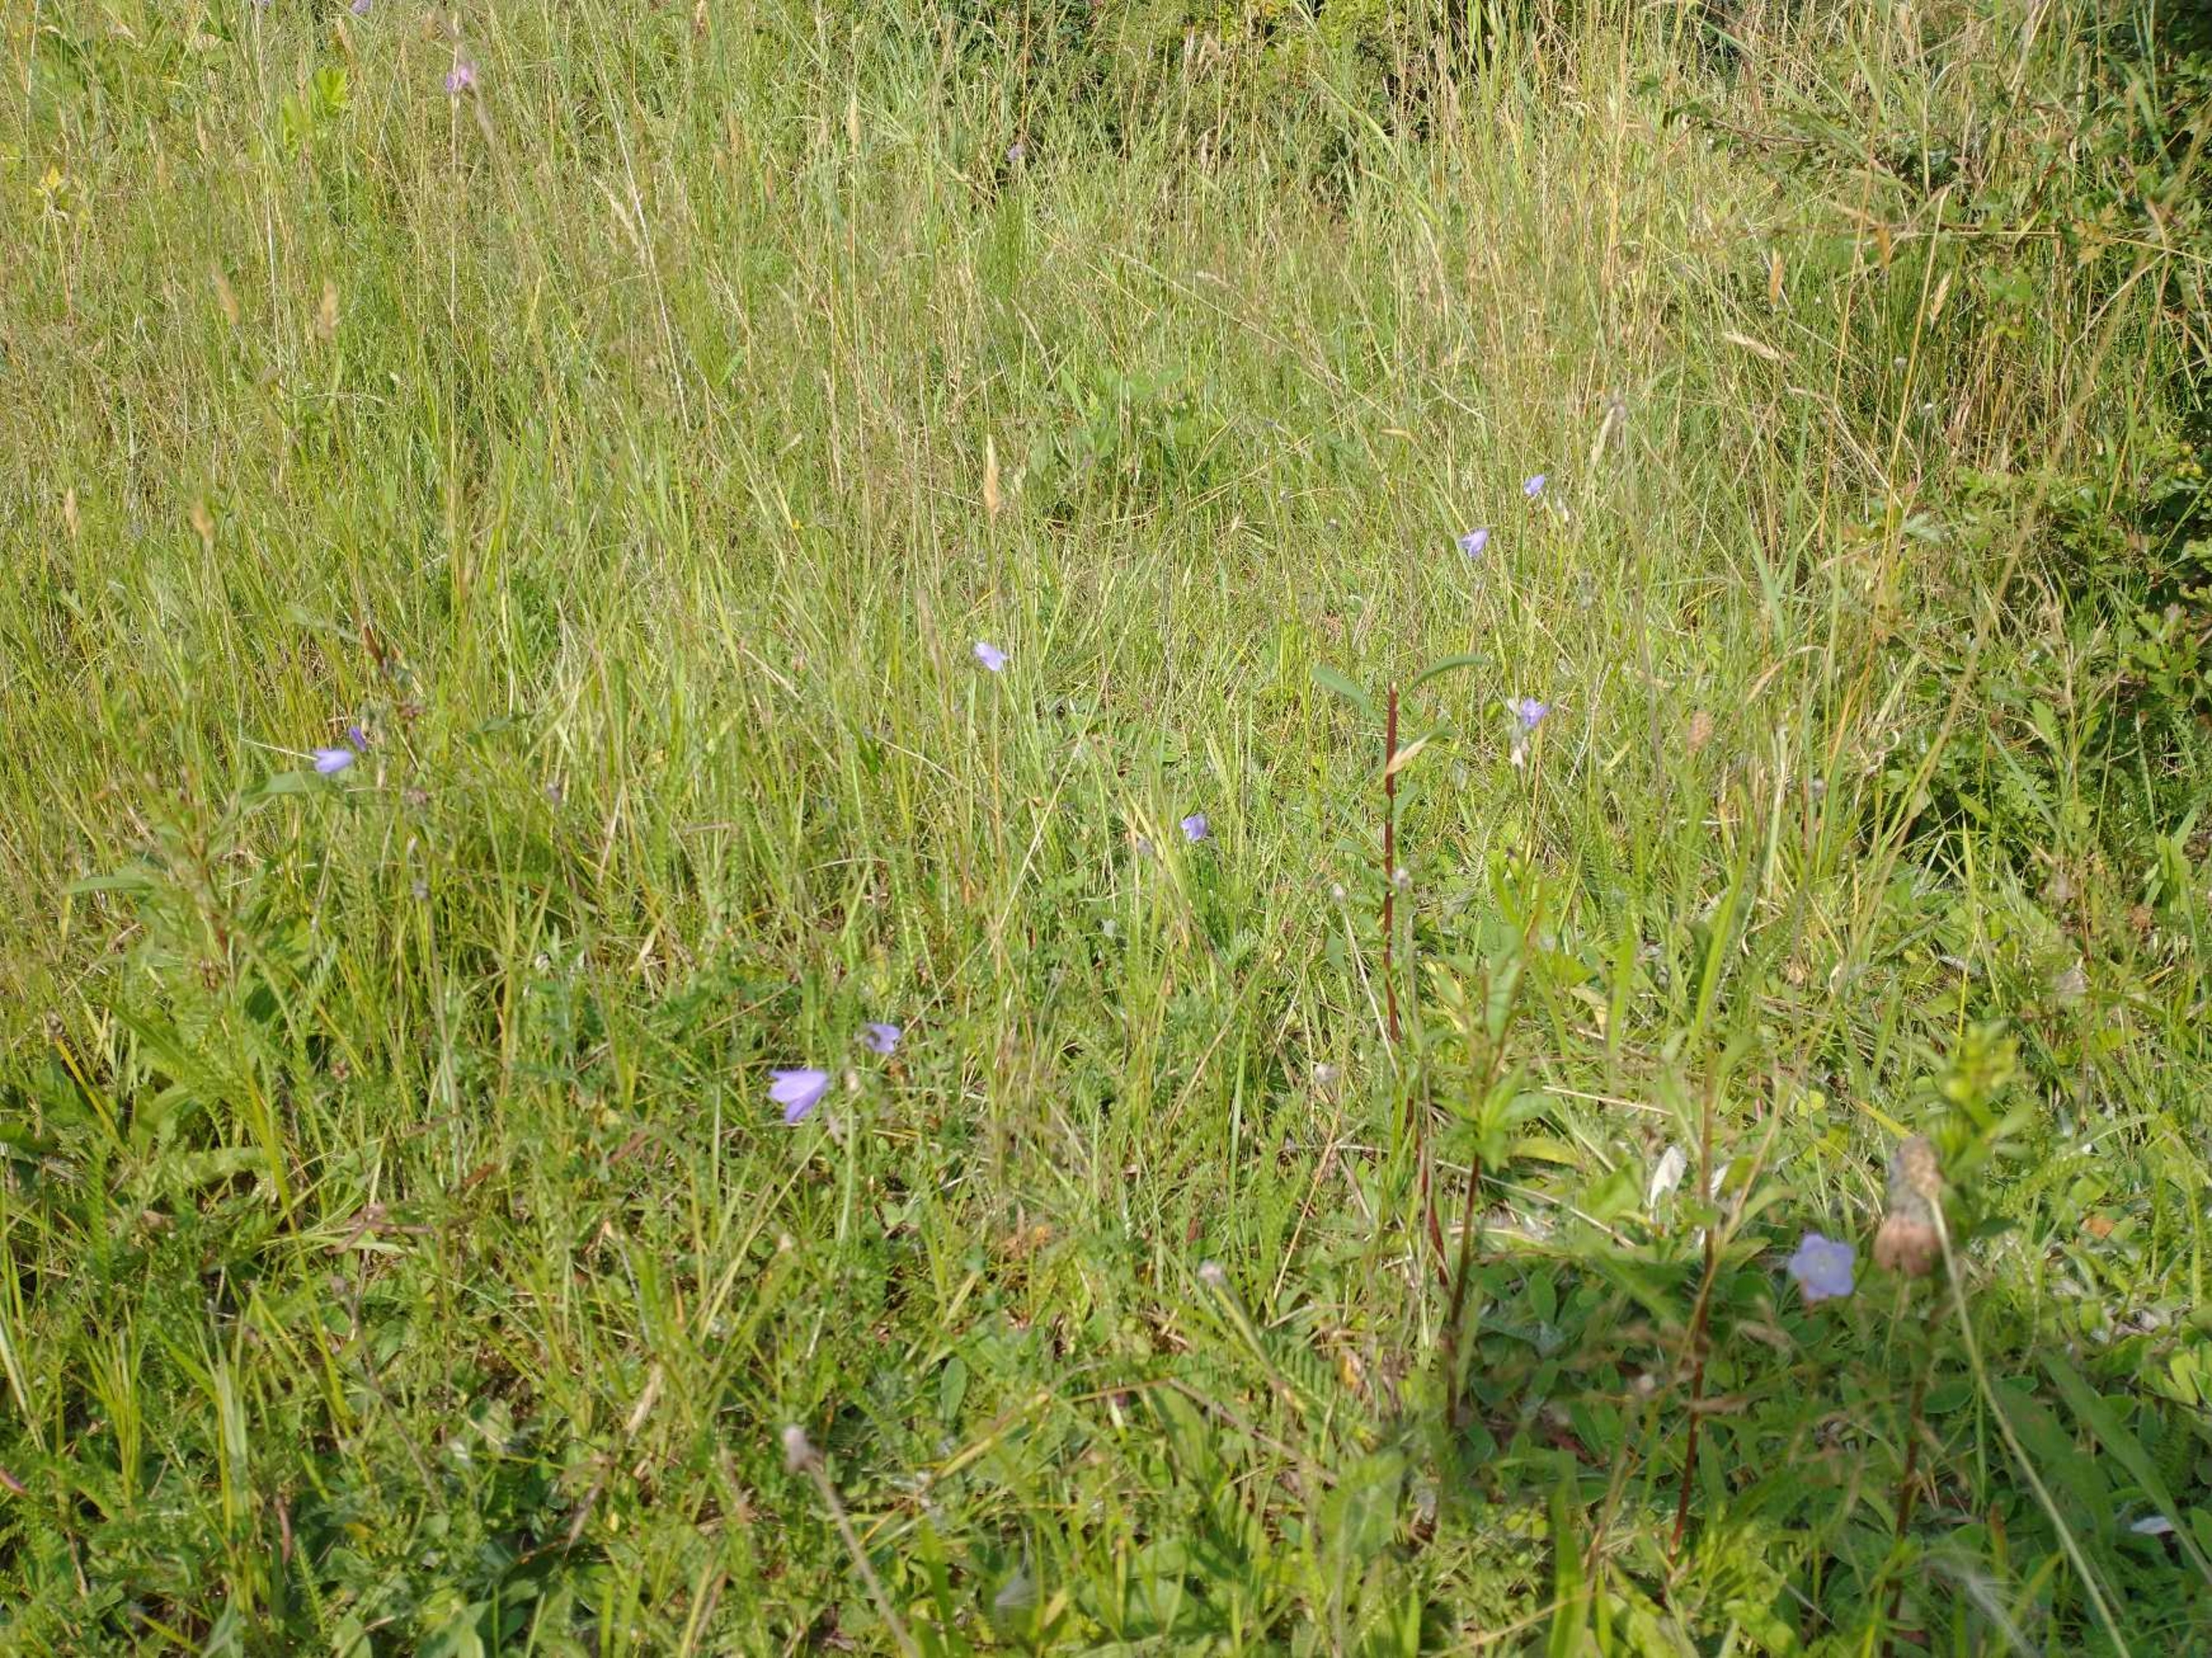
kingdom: Plantae
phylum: Tracheophyta
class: Magnoliopsida
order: Asterales
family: Campanulaceae
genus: Campanula
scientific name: Campanula rotundifolia
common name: Liden klokke
